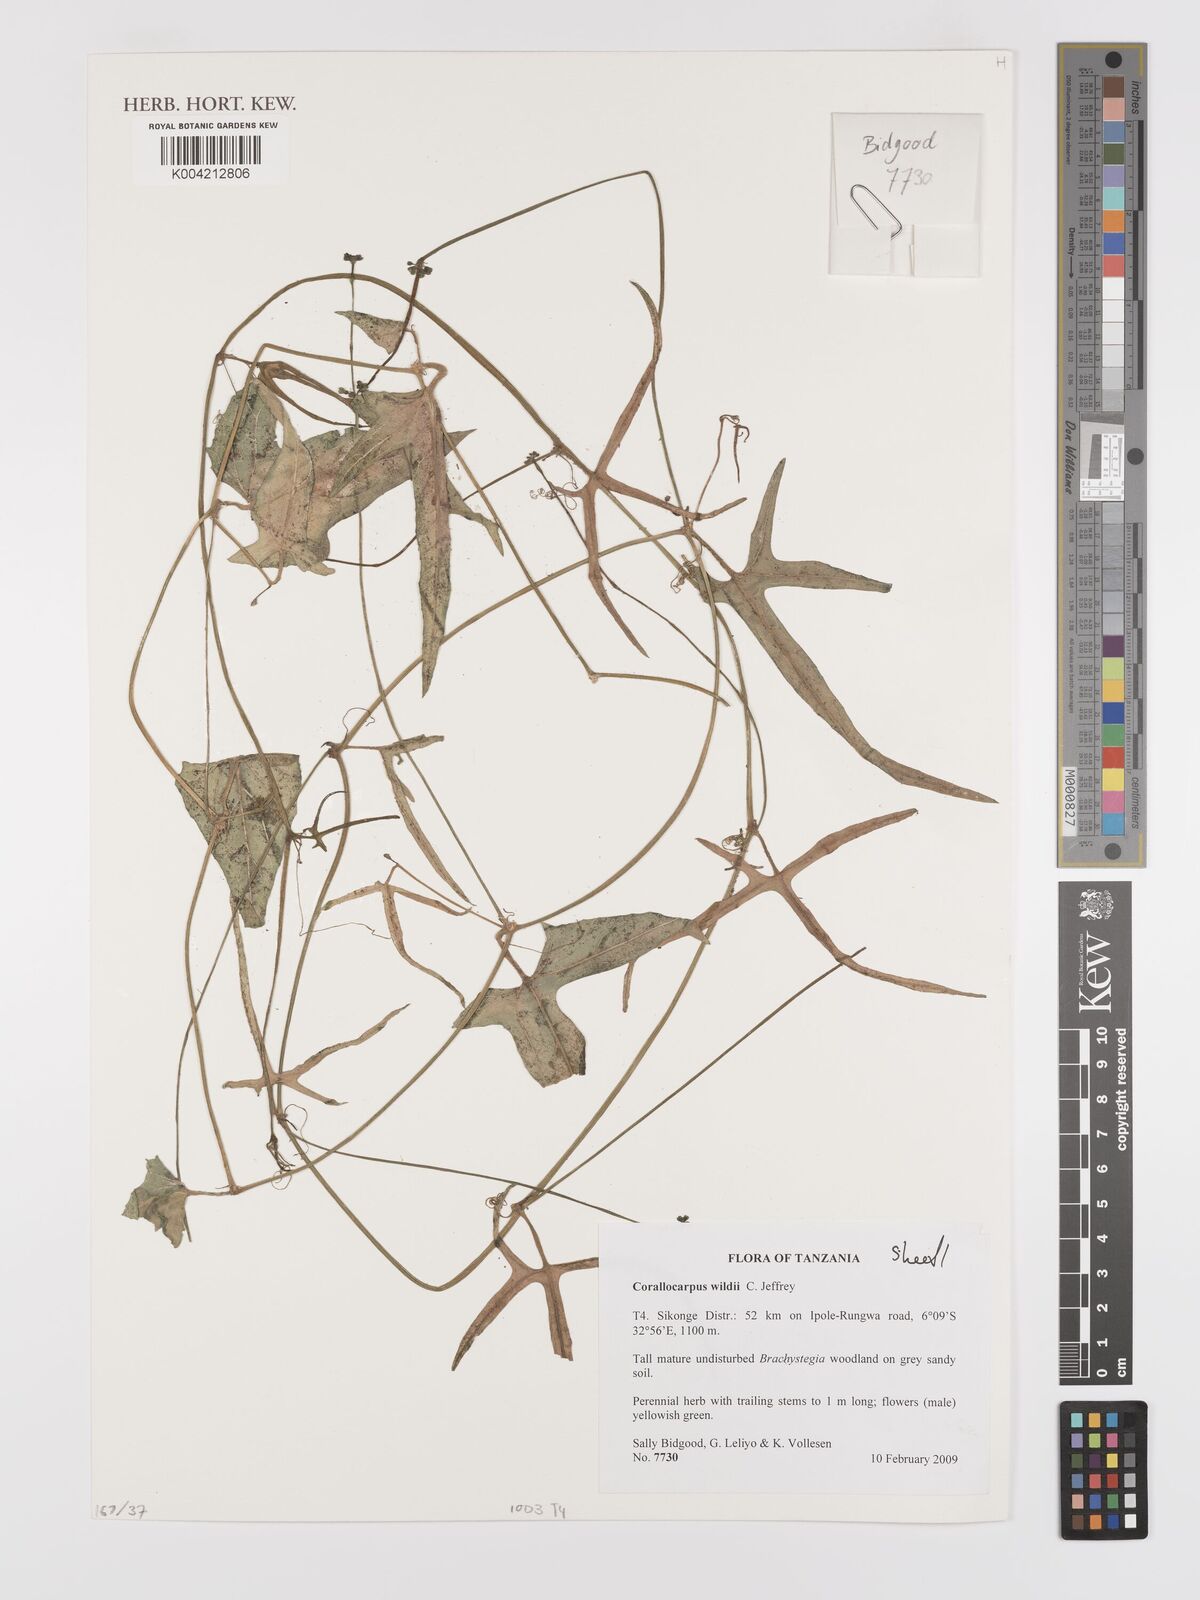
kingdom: Plantae
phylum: Tracheophyta
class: Magnoliopsida
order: Cucurbitales
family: Cucurbitaceae
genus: Corallocarpus
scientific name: Corallocarpus tenuissimus
